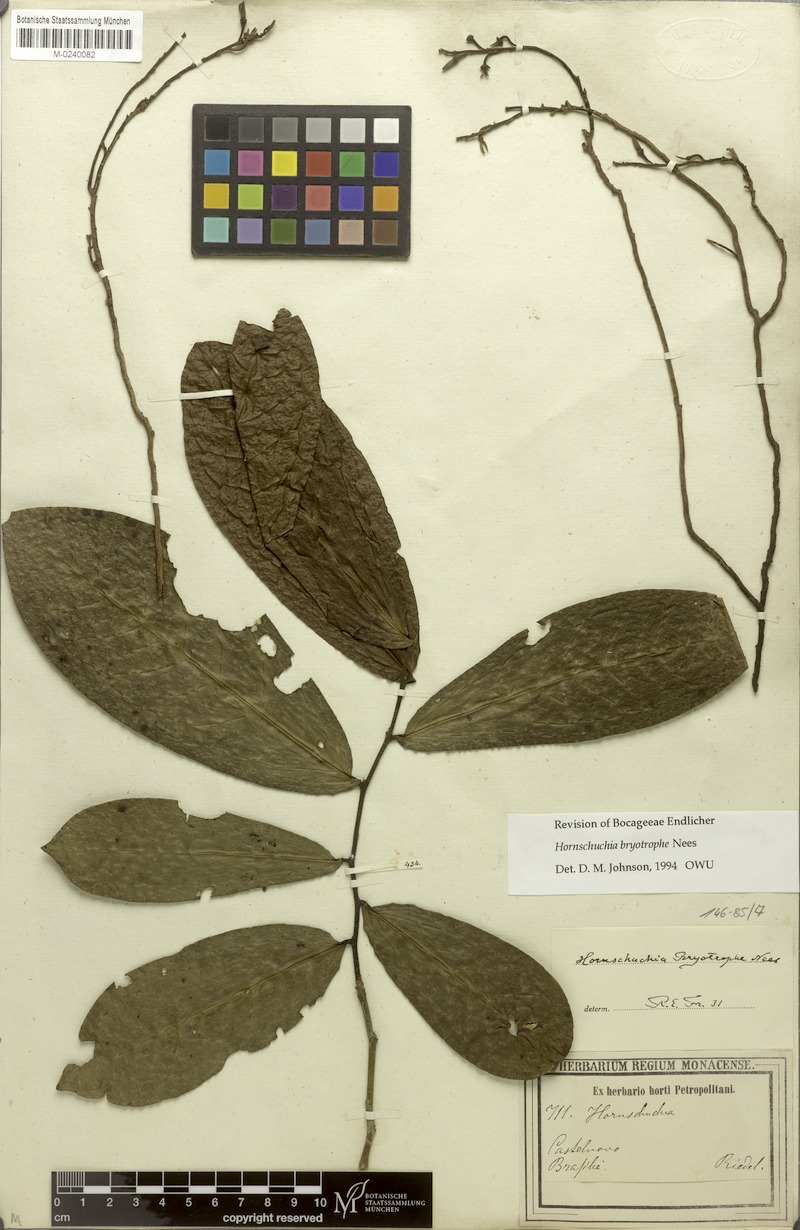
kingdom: Plantae
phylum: Tracheophyta
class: Magnoliopsida
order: Magnoliales
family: Annonaceae
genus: Hornschuchia
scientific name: Hornschuchia bryotrophe
